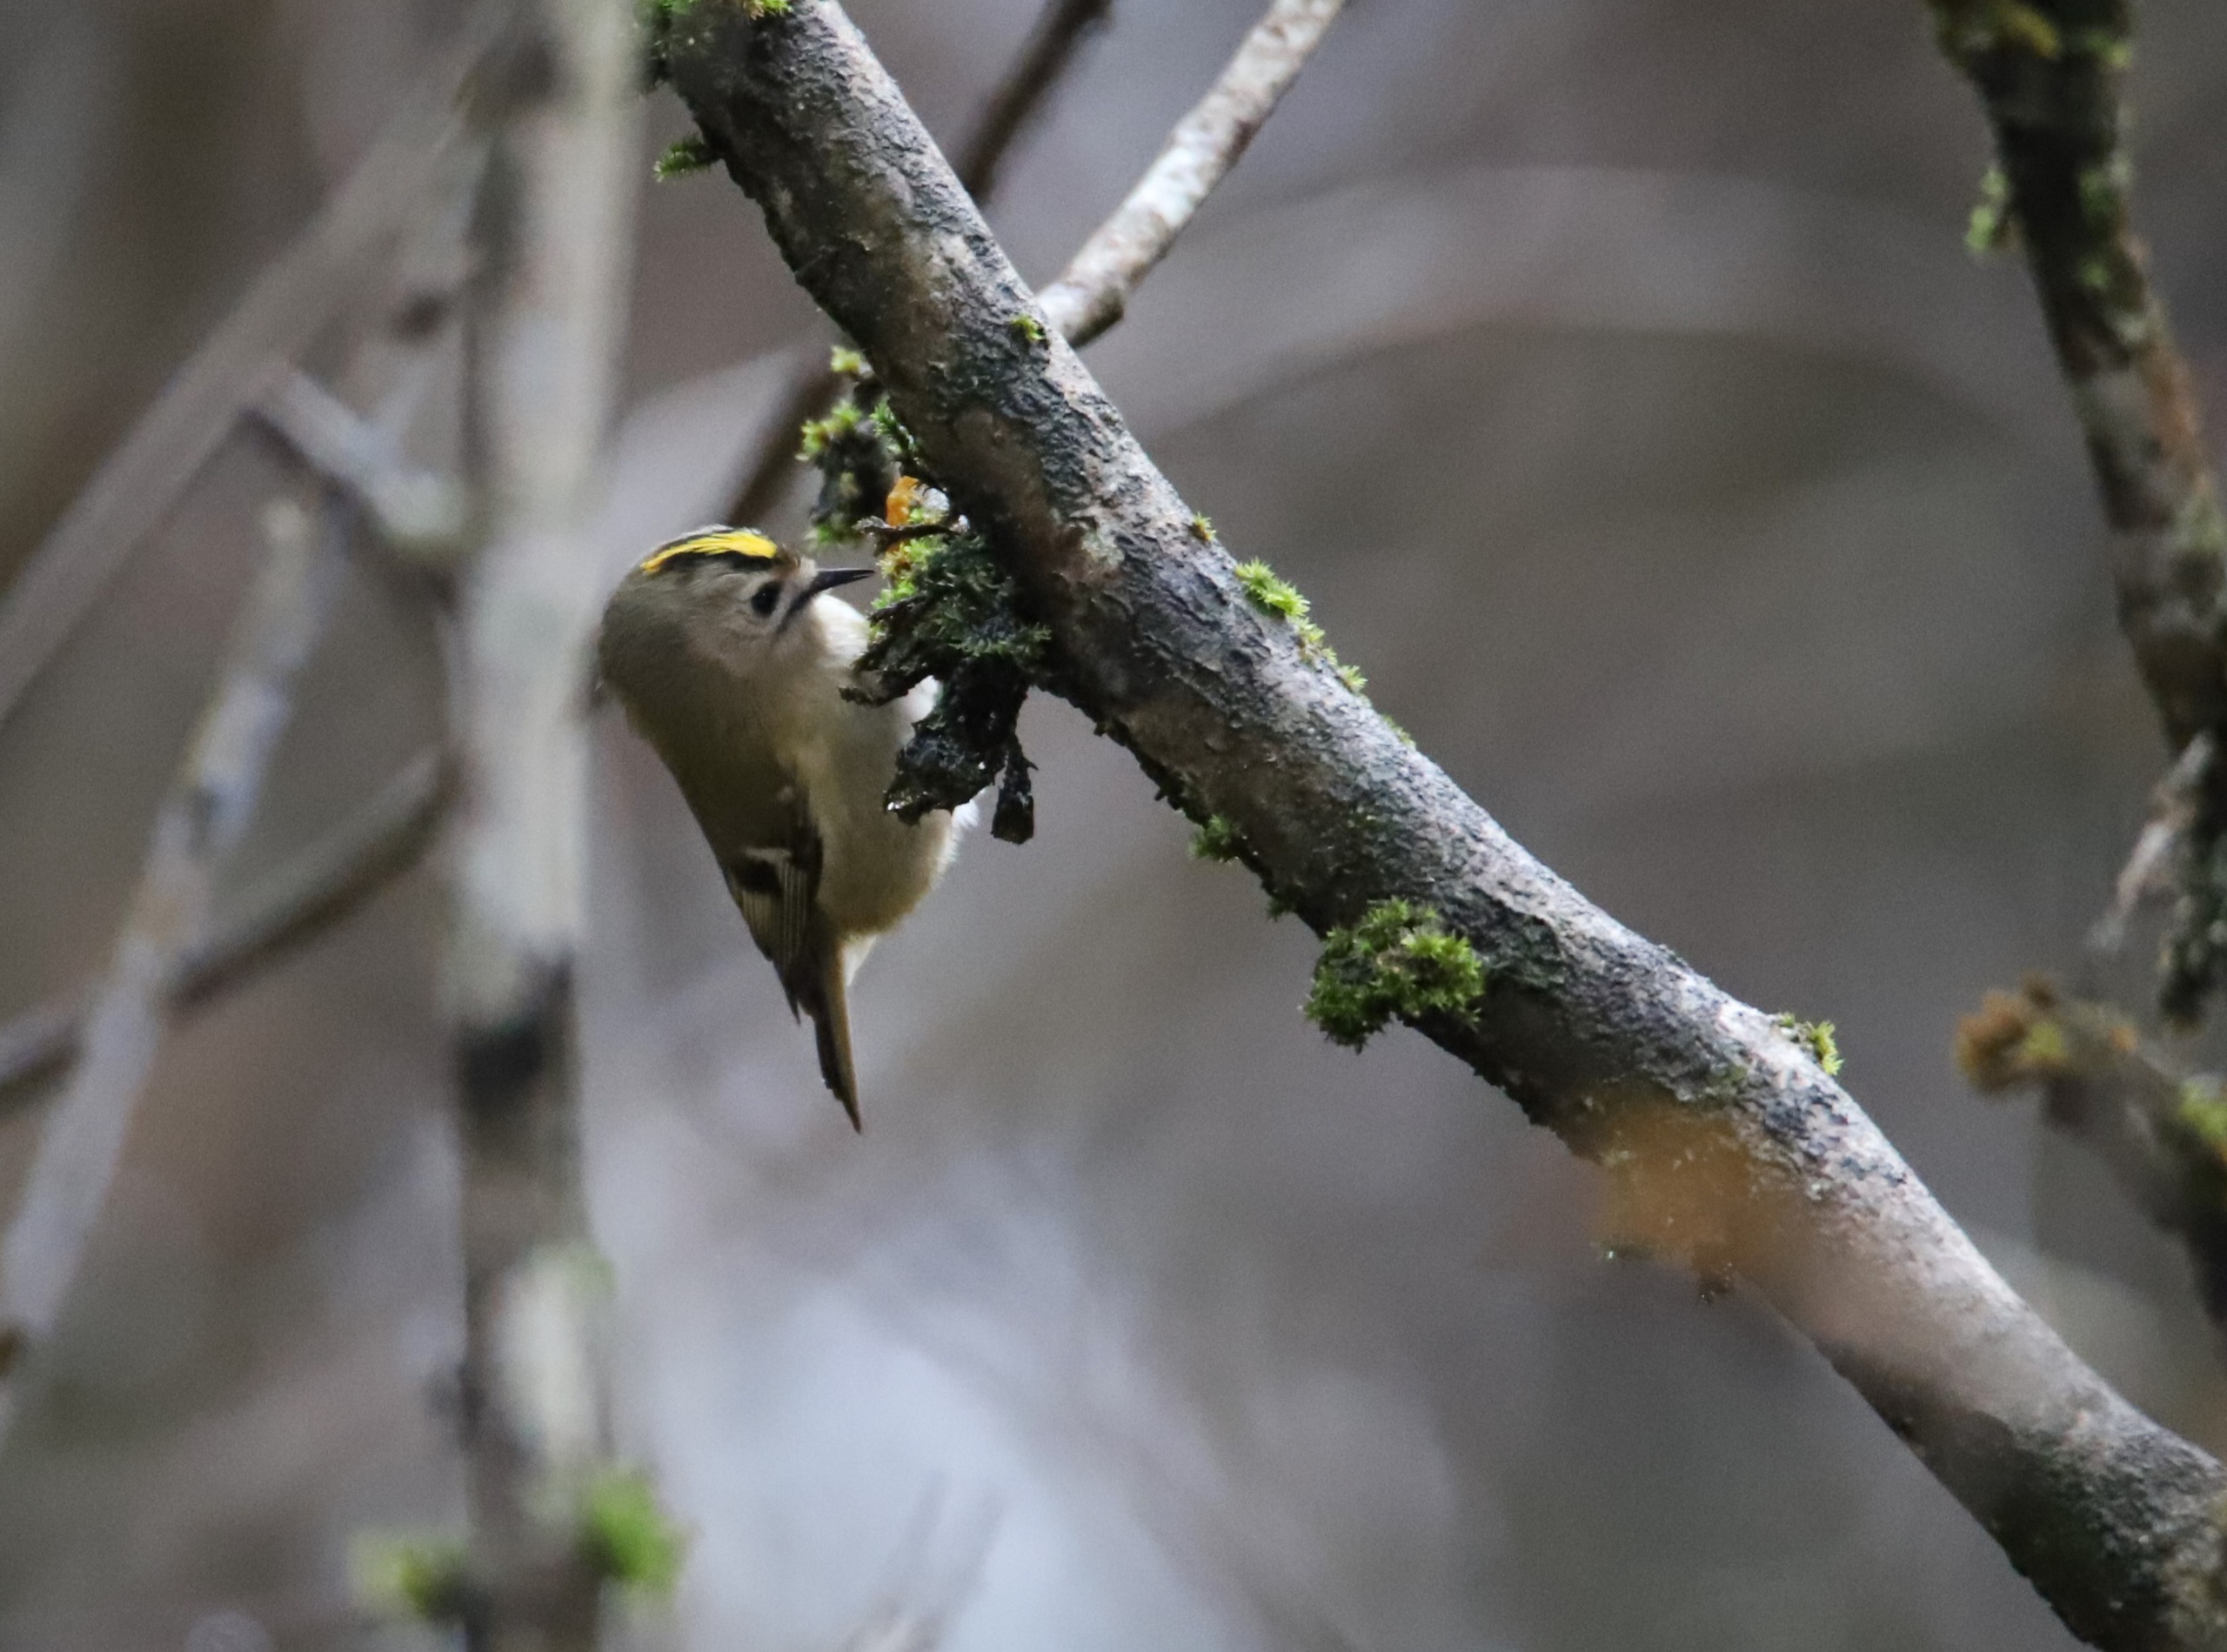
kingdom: Animalia
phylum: Chordata
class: Aves
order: Passeriformes
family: Regulidae
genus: Regulus
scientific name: Regulus regulus
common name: Fuglekonge
